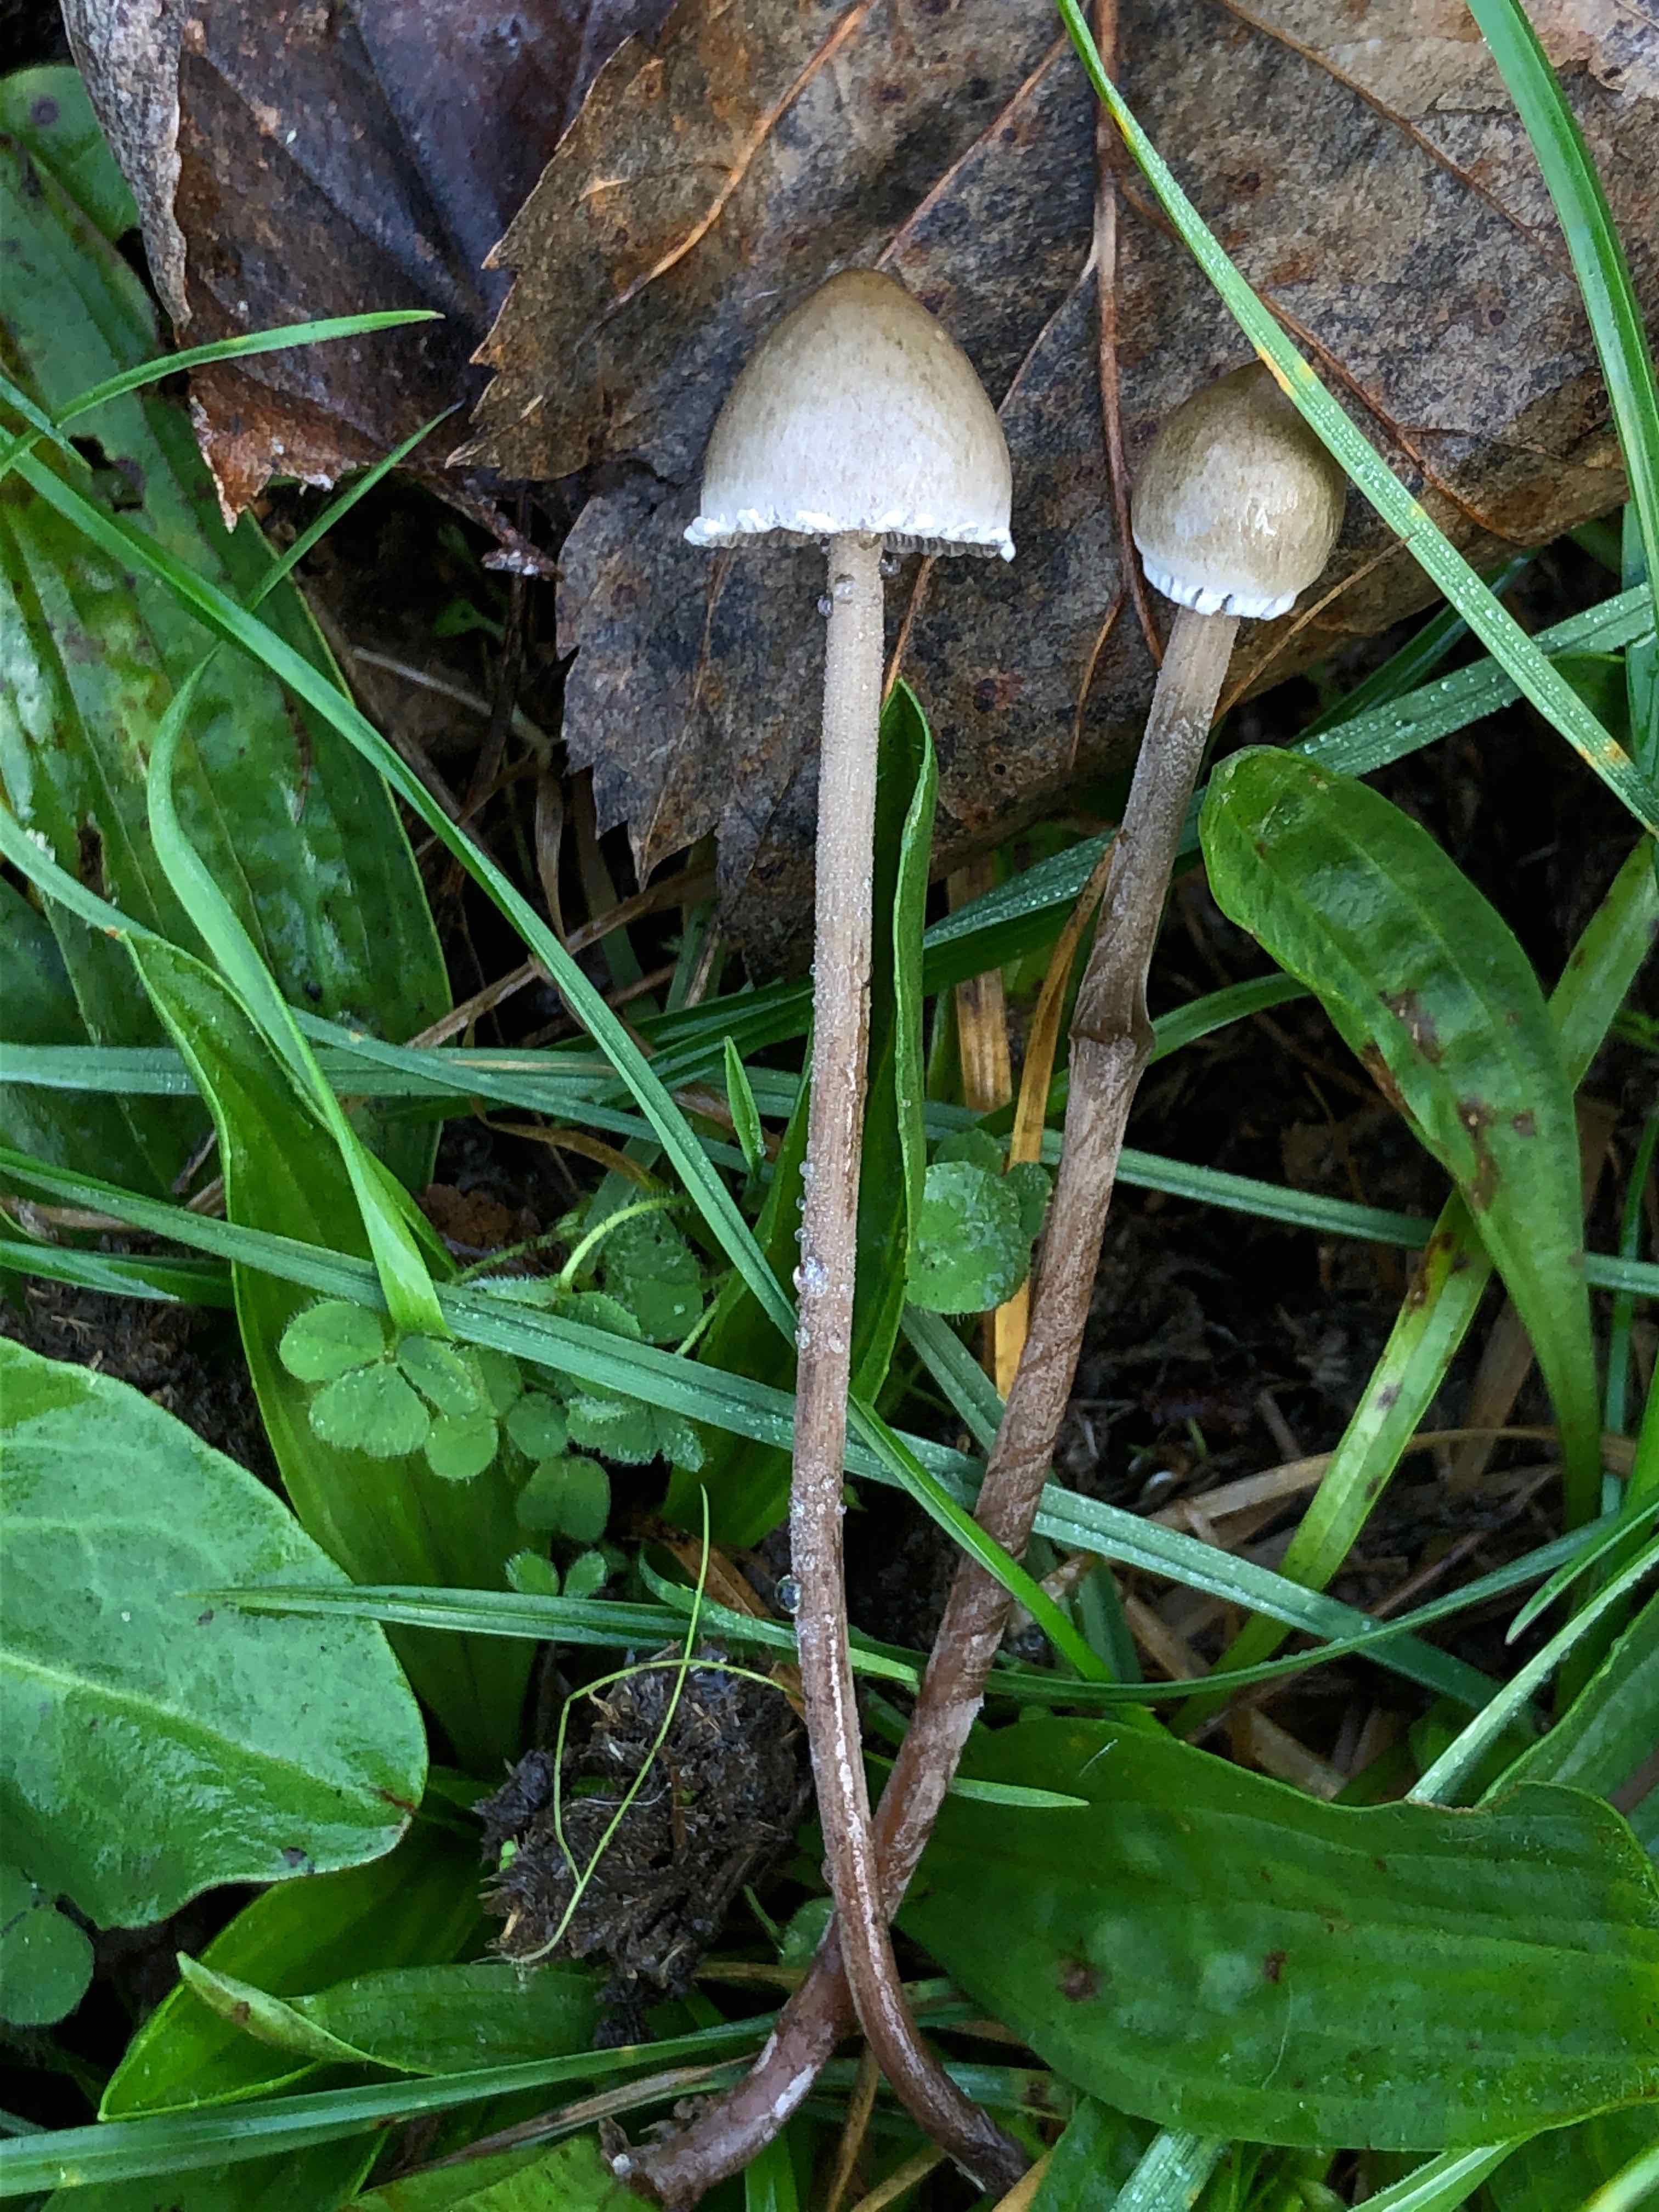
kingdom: Fungi
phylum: Basidiomycota
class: Agaricomycetes
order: Agaricales
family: Bolbitiaceae
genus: Panaeolus
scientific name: Panaeolus papilionaceus
